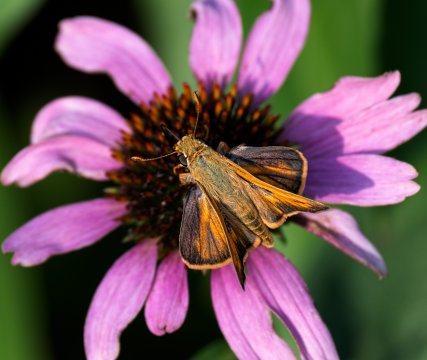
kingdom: Animalia
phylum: Arthropoda
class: Insecta
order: Lepidoptera
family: Hesperiidae
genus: Hylephila
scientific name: Hylephila phyleus
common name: Fiery Skipper
